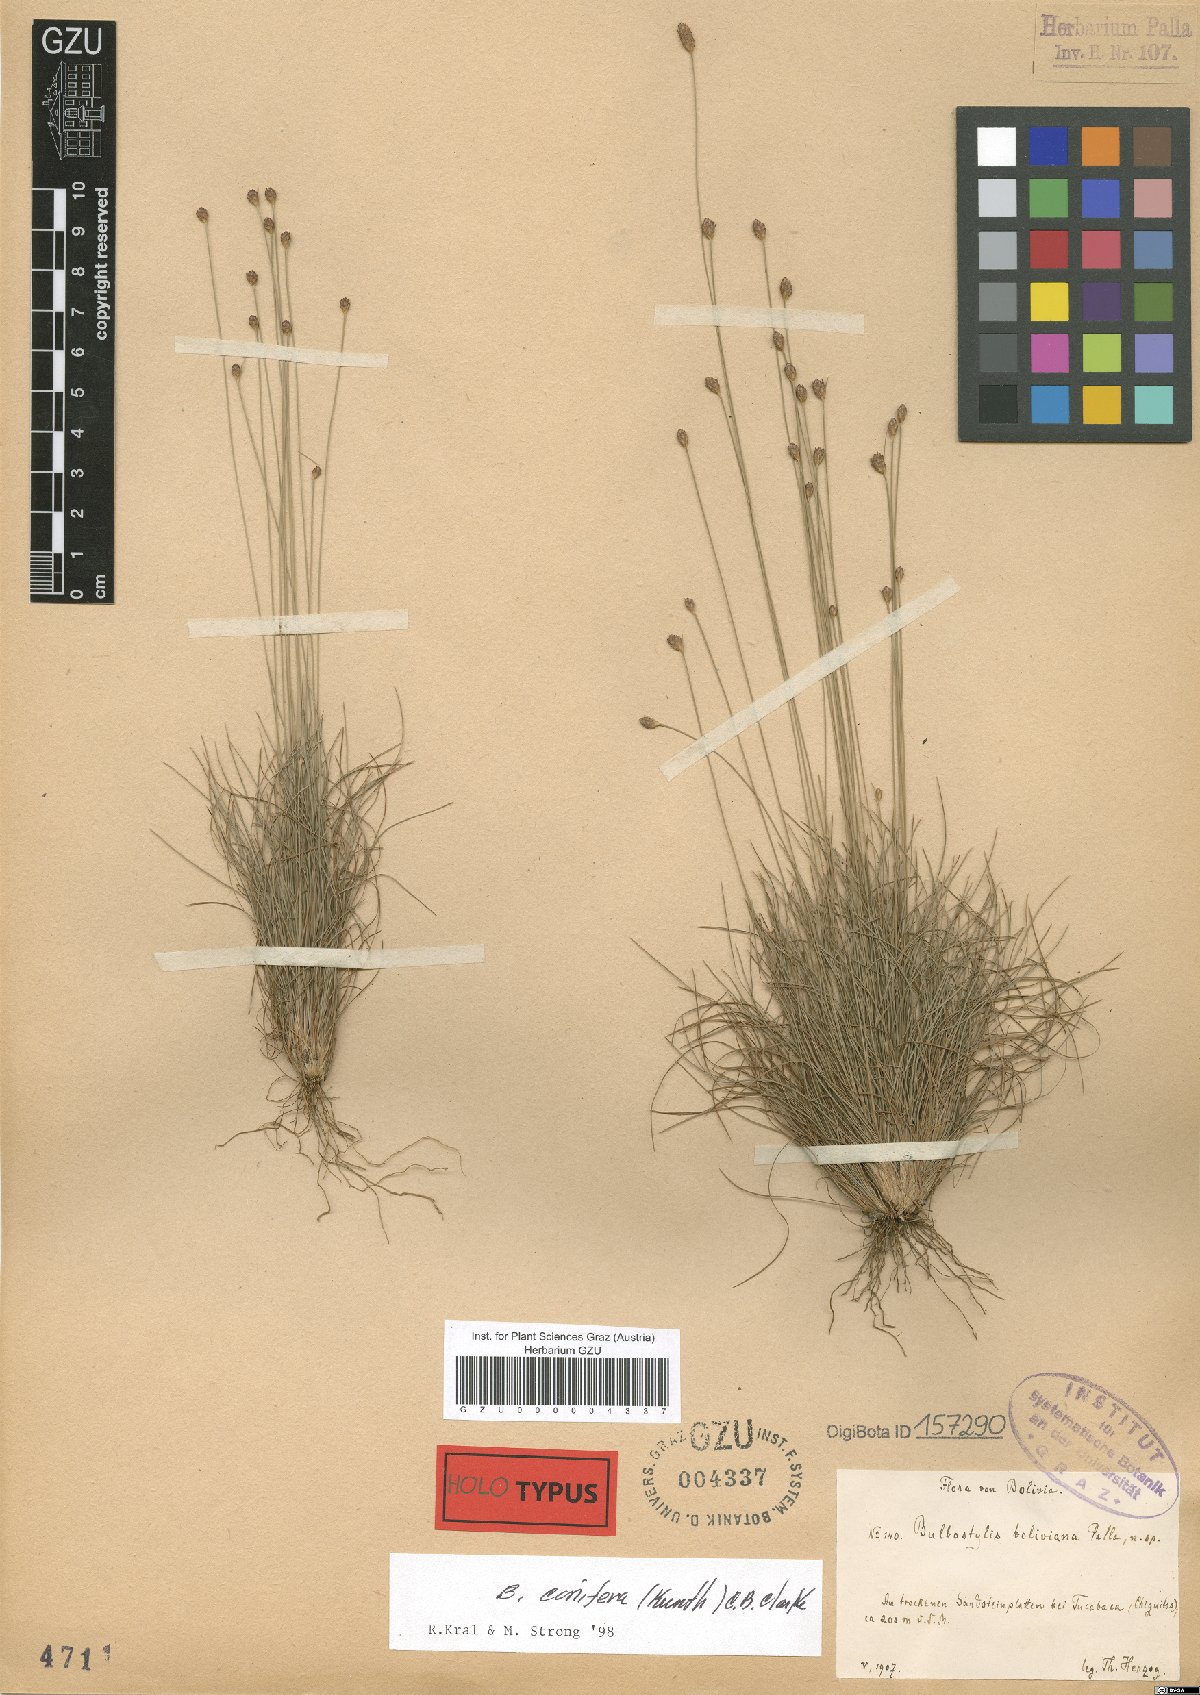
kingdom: Plantae
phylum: Tracheophyta
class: Liliopsida
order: Poales
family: Cyperaceae
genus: Bulbostylis
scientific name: Bulbostylis boliviana
